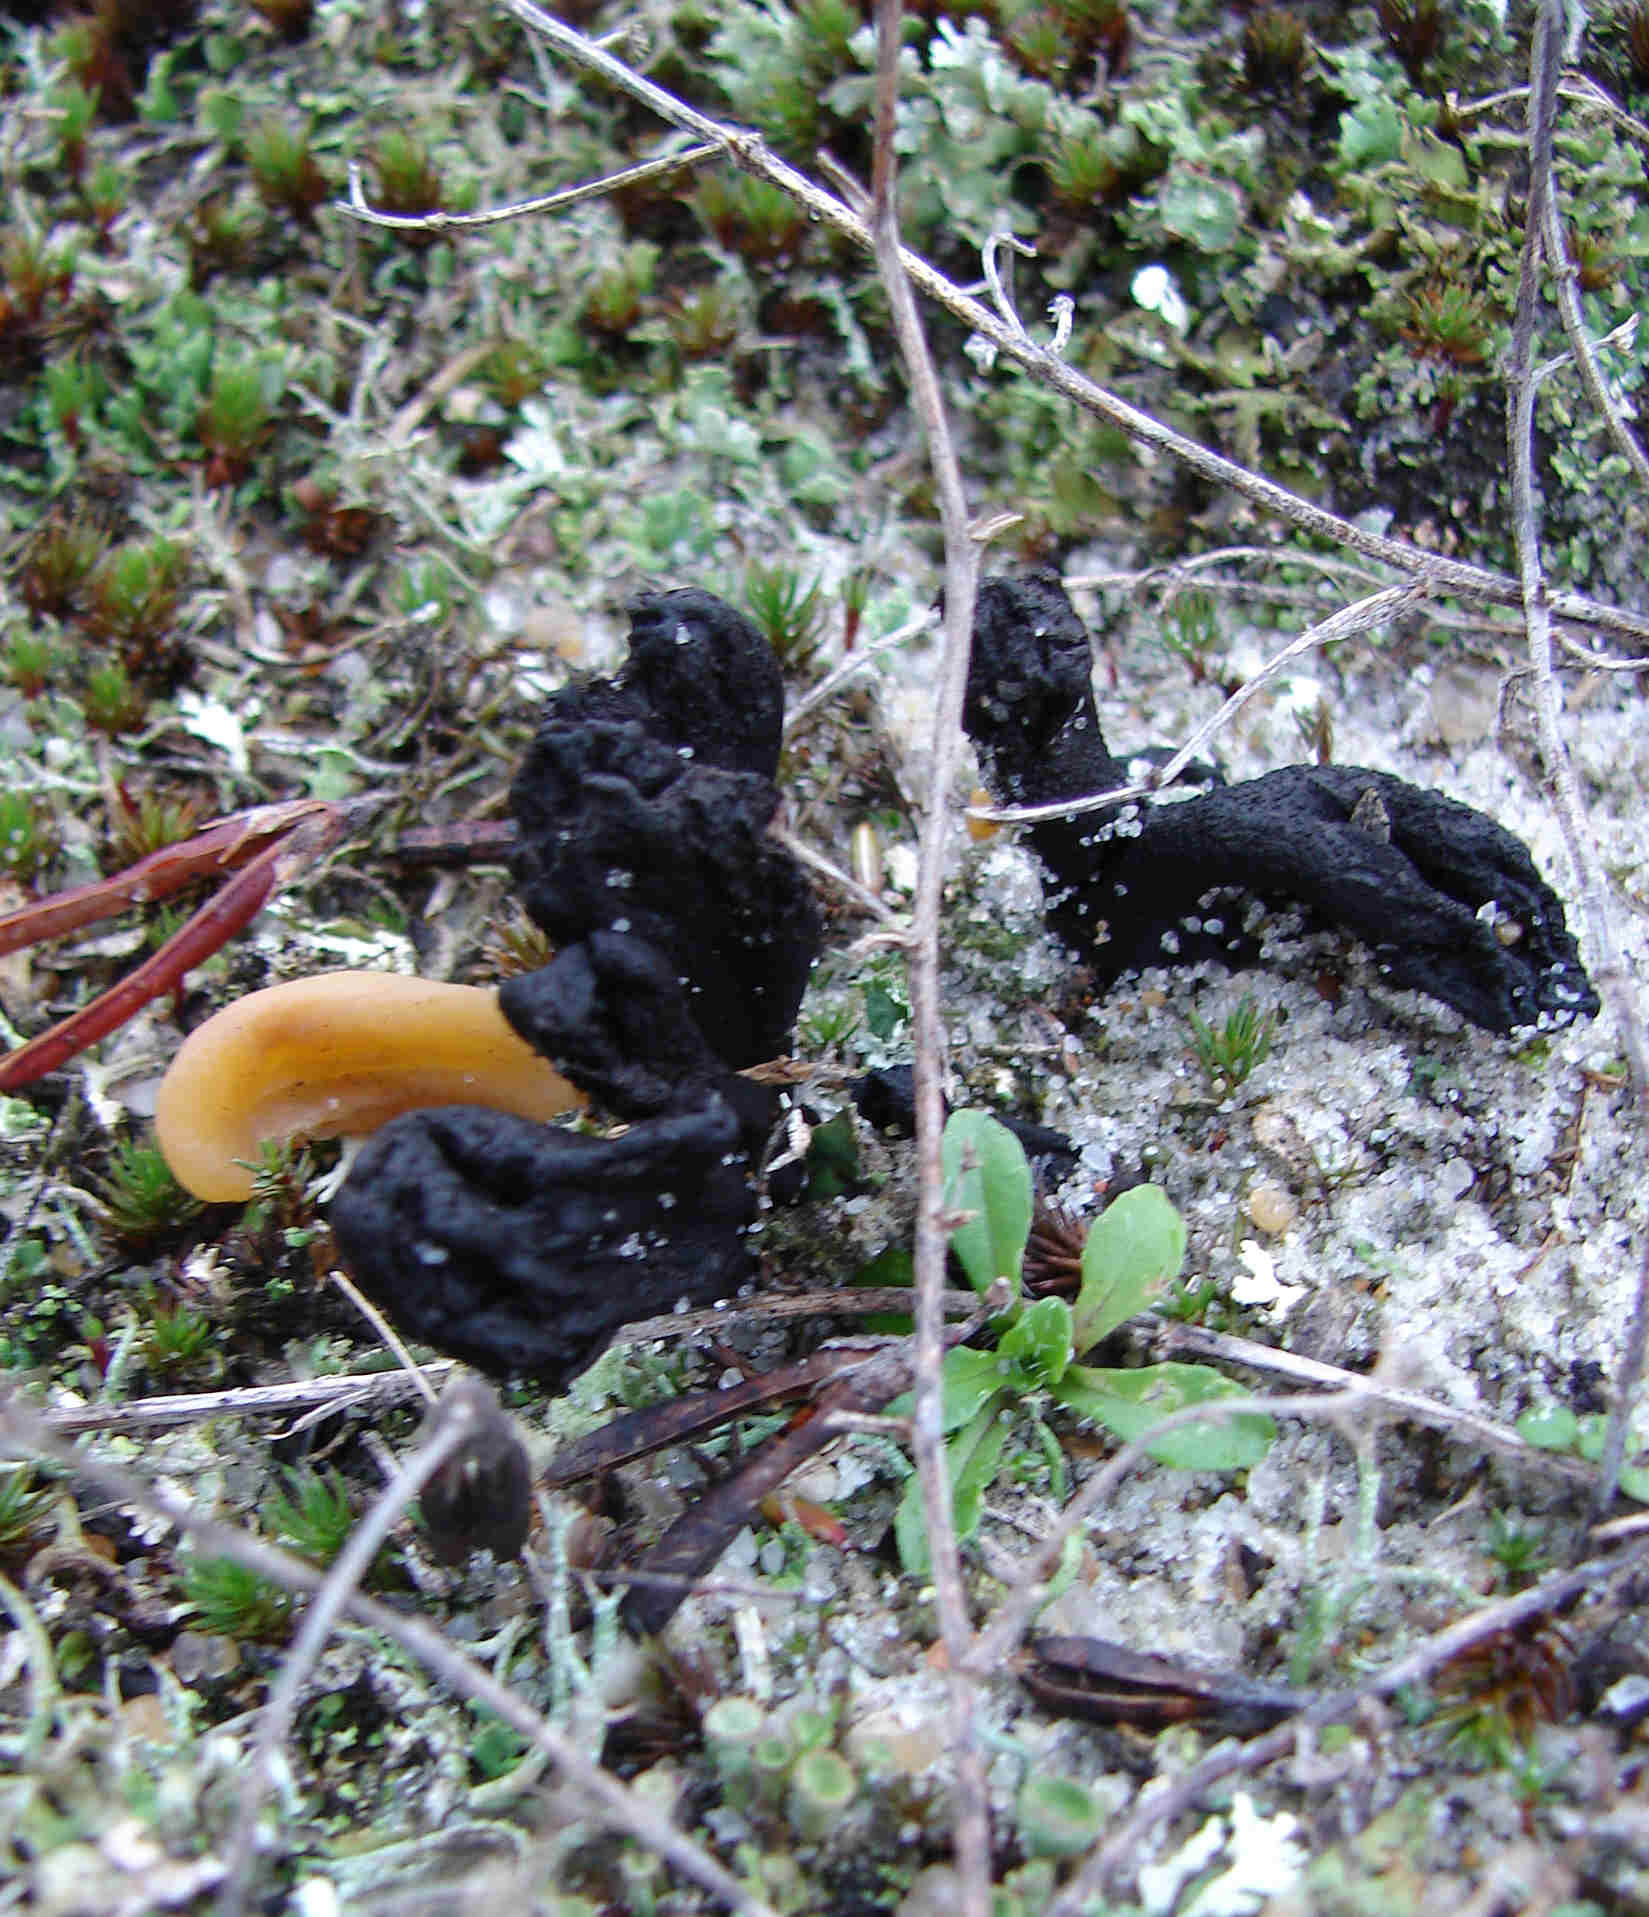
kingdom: Fungi
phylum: Ascomycota
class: Geoglossomycetes
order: Geoglossales
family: Geoglossaceae
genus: Sabuloglossum
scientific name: Sabuloglossum arenarium
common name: klit-jordtunge
